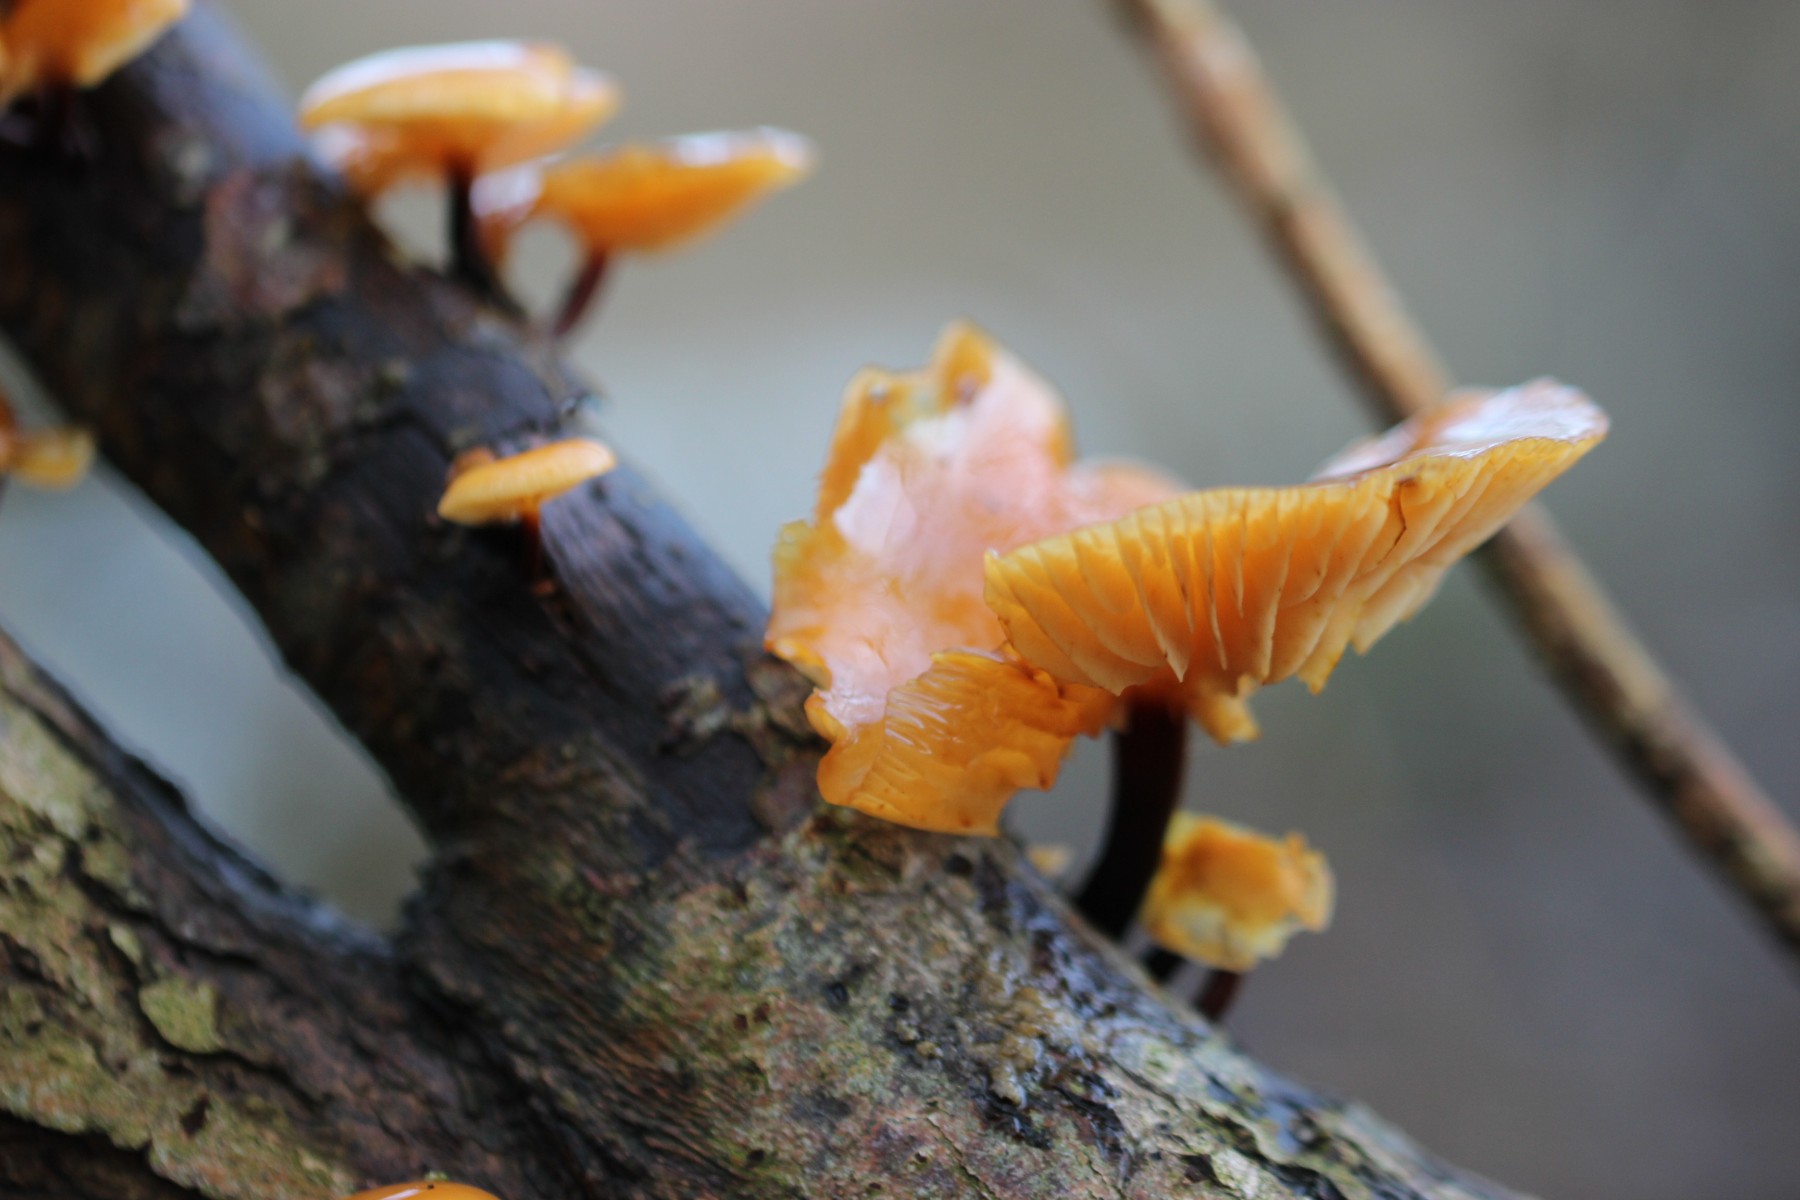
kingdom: Fungi
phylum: Basidiomycota
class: Agaricomycetes
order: Agaricales
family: Physalacriaceae
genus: Flammulina
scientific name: Flammulina
